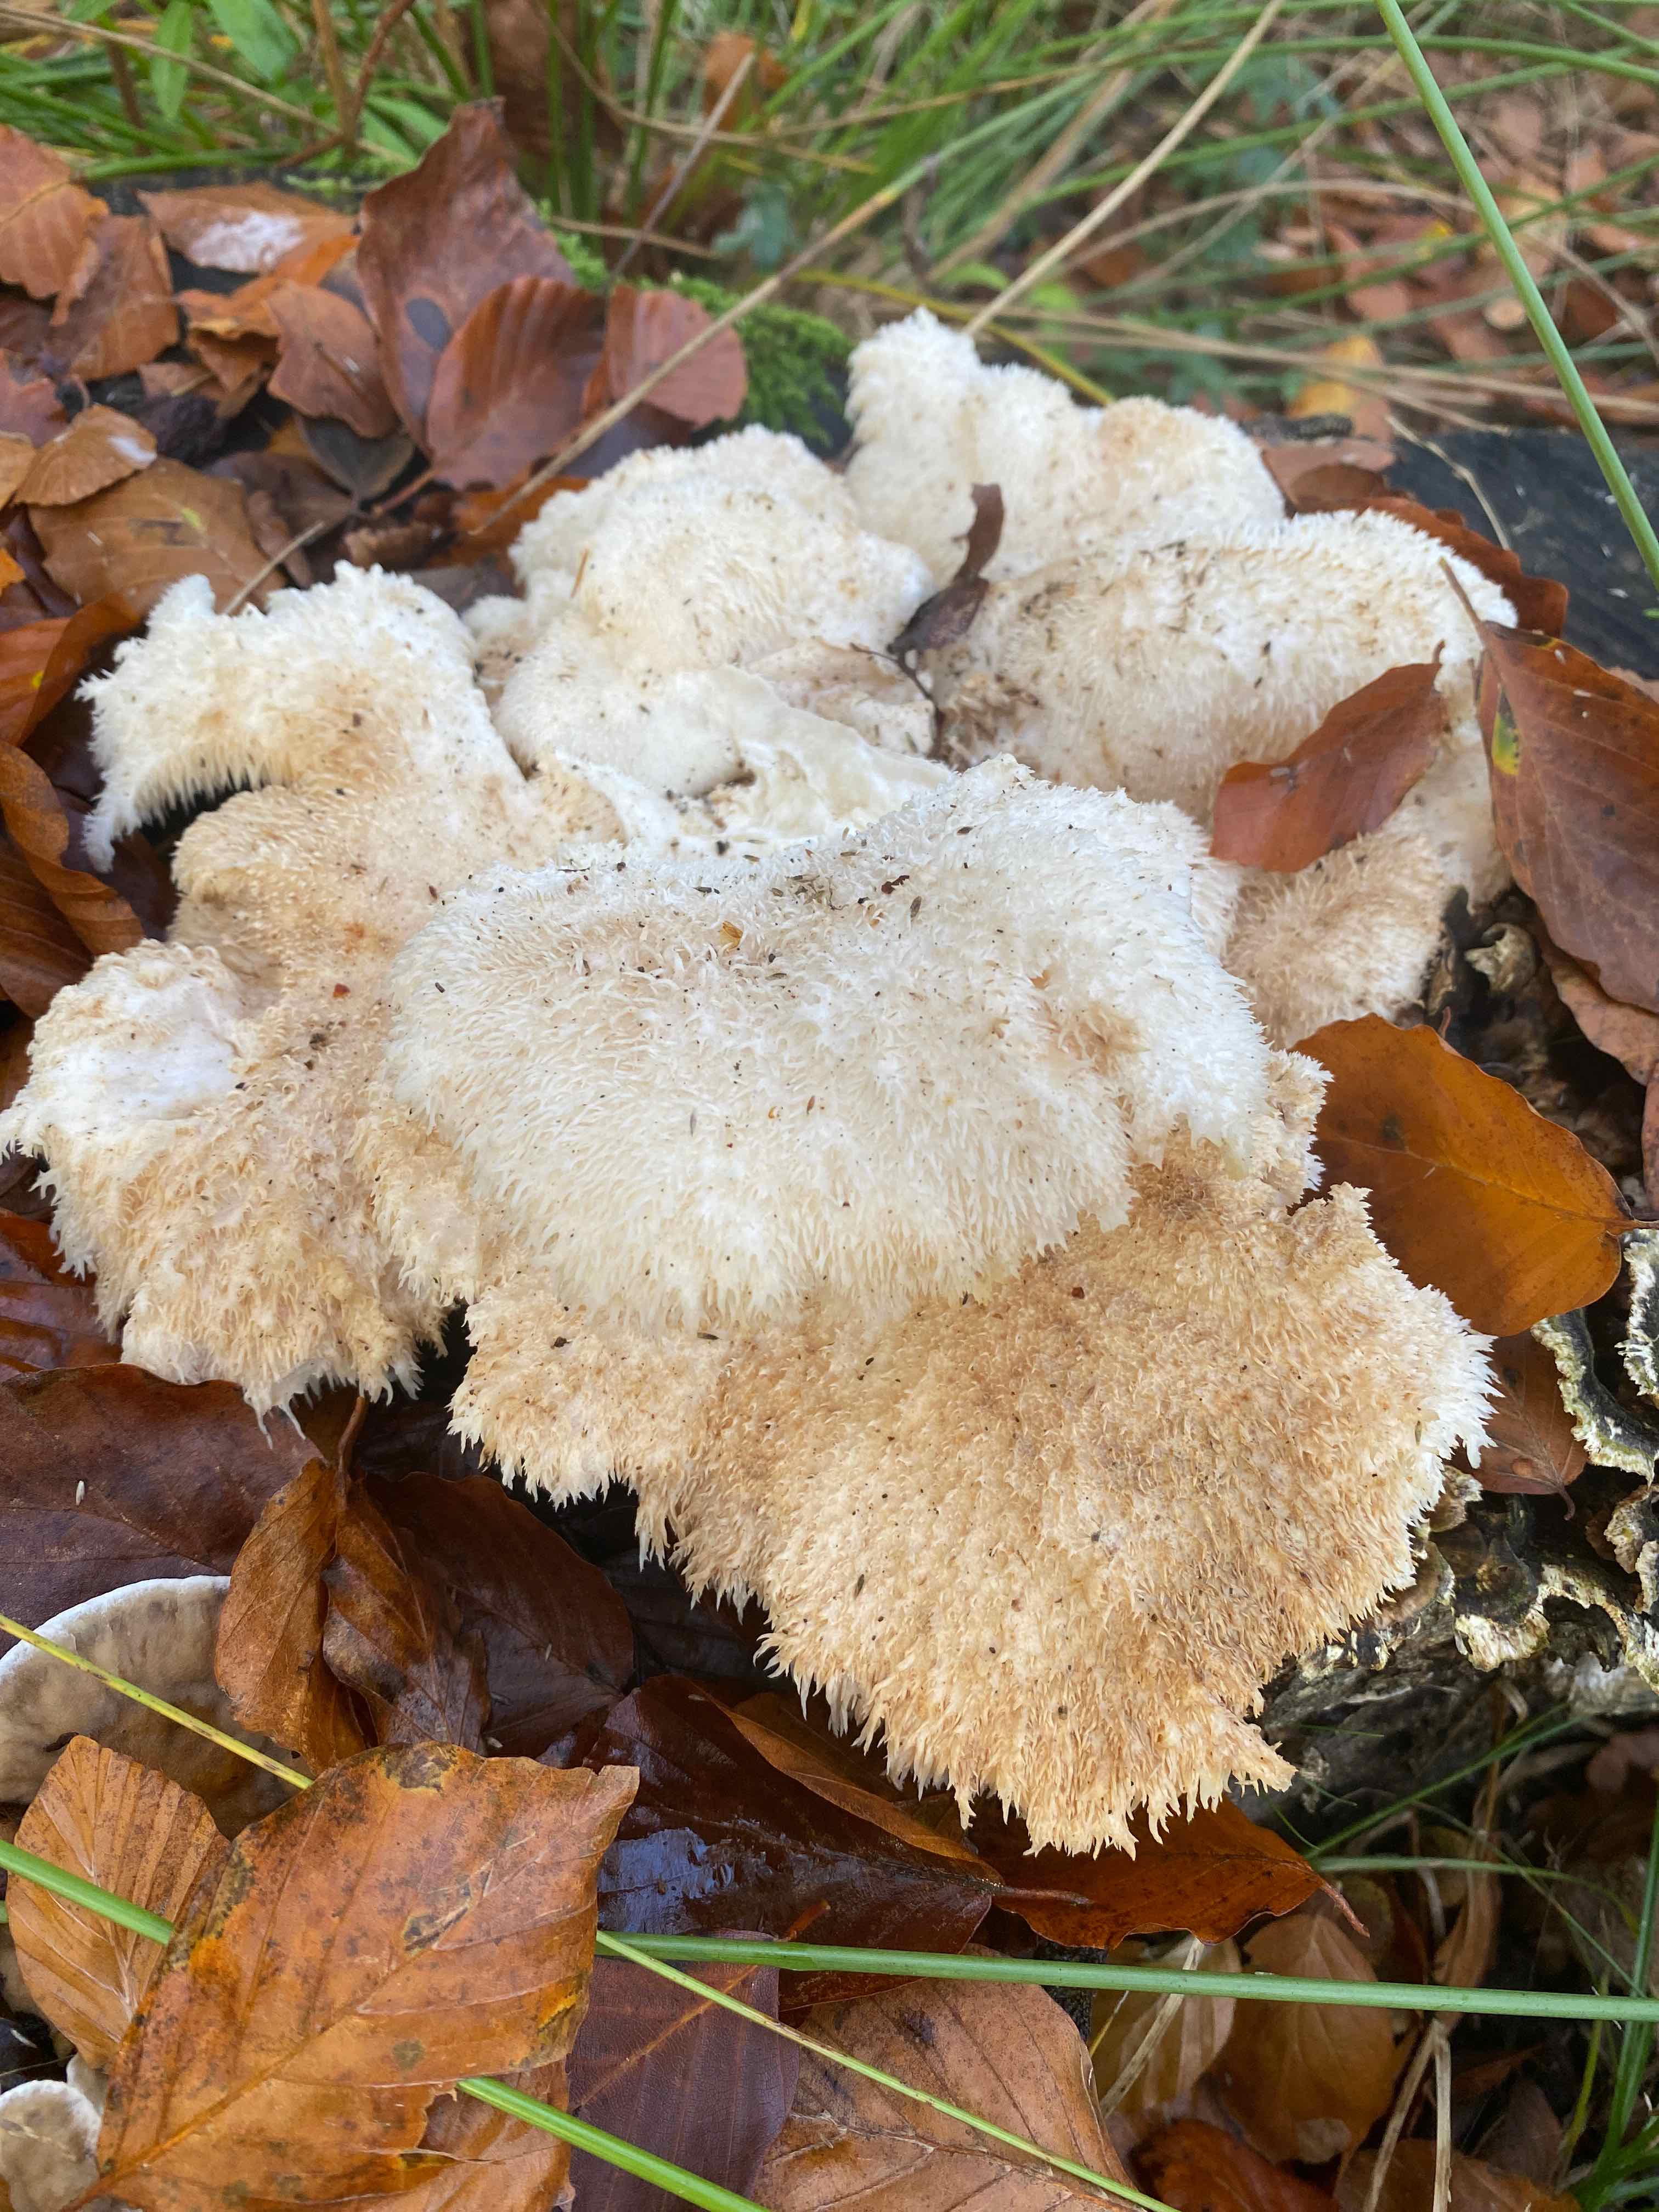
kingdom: Fungi
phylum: Basidiomycota
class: Agaricomycetes
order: Russulales
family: Hericiaceae
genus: Hericium
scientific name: Hericium cirrhatum
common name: børstepigsvamp
